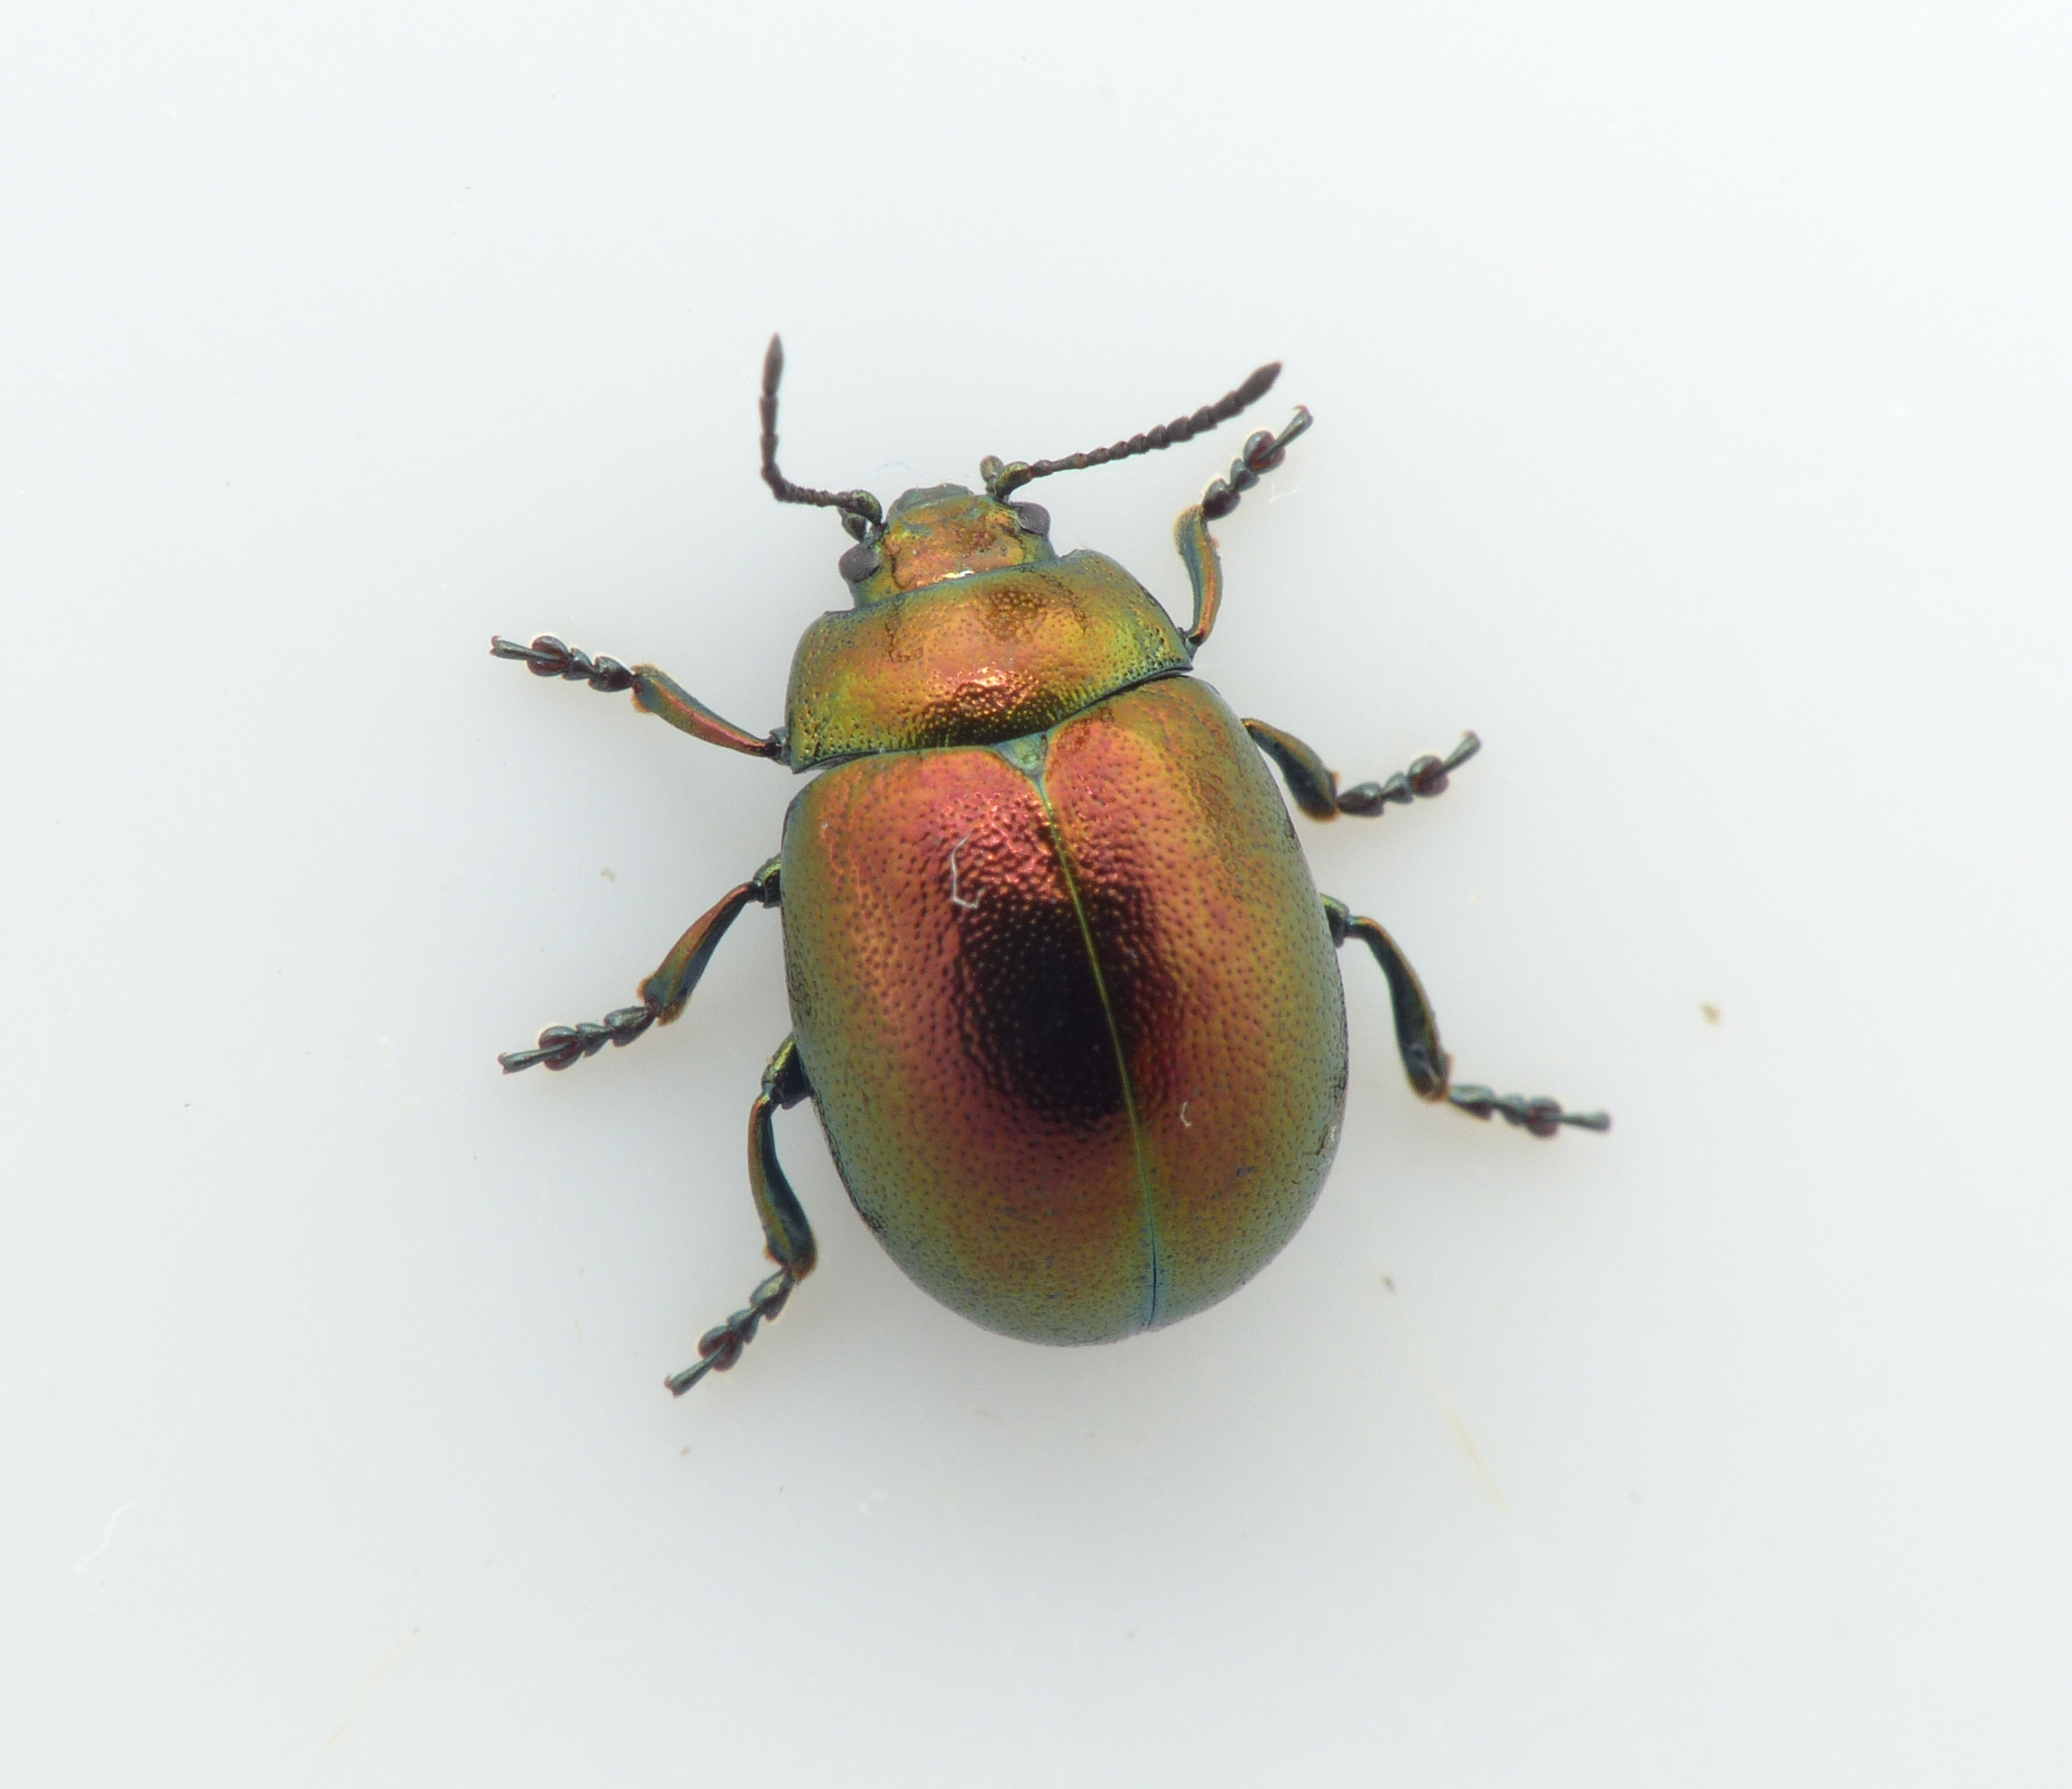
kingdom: Animalia
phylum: Arthropoda
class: Insecta
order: Coleoptera
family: Chrysomelidae
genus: Chrysolina
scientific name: Chrysolina varians
